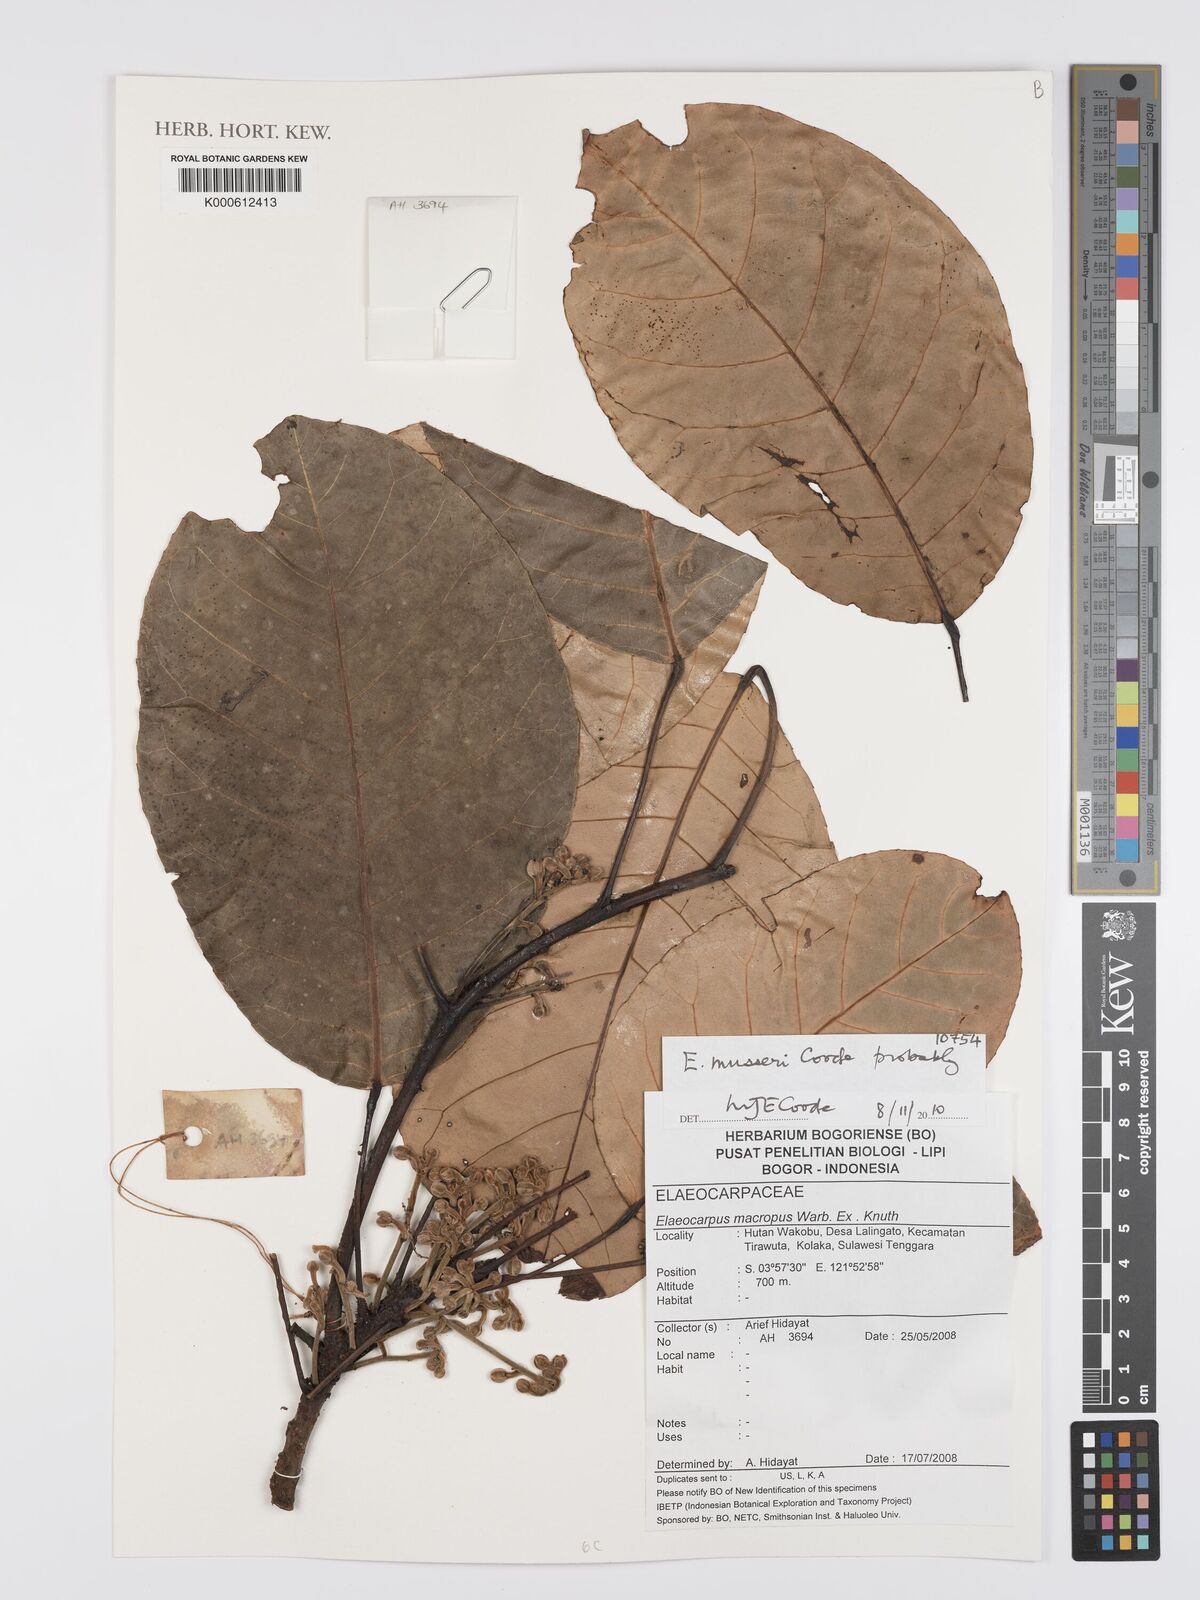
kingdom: Plantae
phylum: Tracheophyta
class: Magnoliopsida
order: Oxalidales
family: Elaeocarpaceae
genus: Elaeocarpus
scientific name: Elaeocarpus musseri
